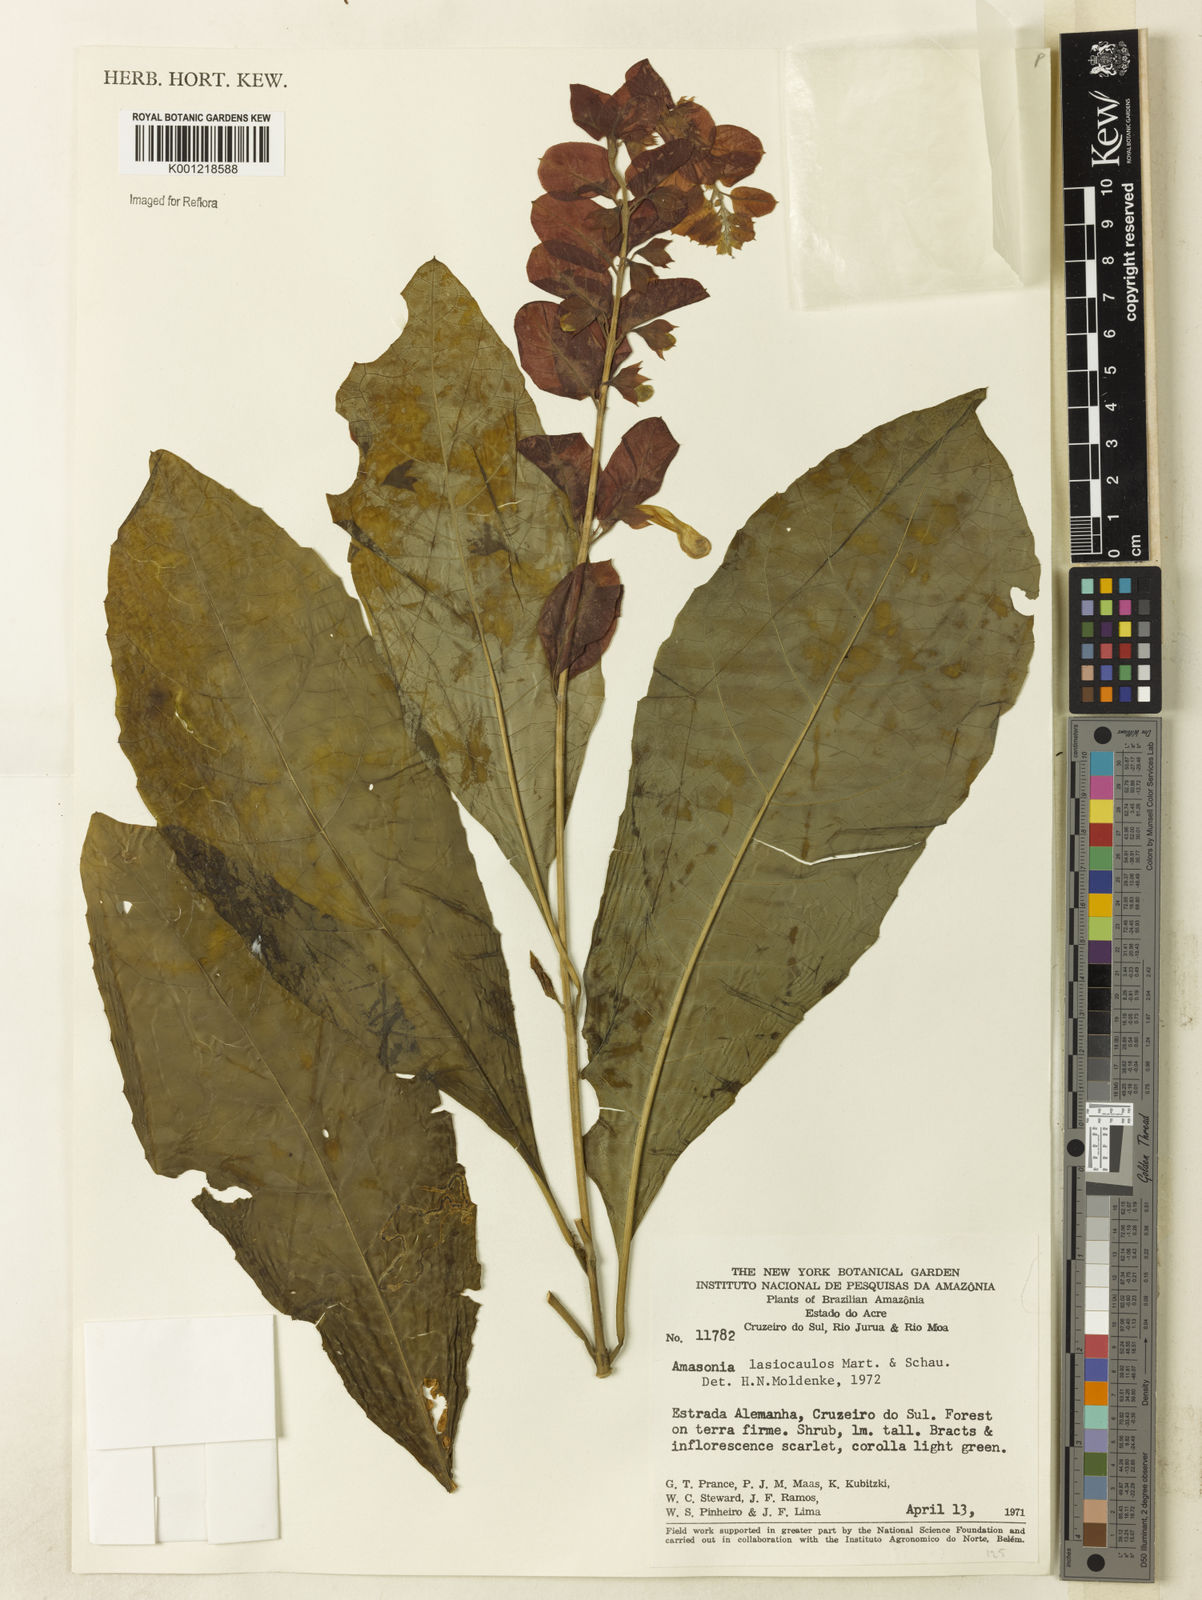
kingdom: Plantae
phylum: Tracheophyta
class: Magnoliopsida
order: Lamiales
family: Lamiaceae
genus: Amasonia
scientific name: Amasonia
